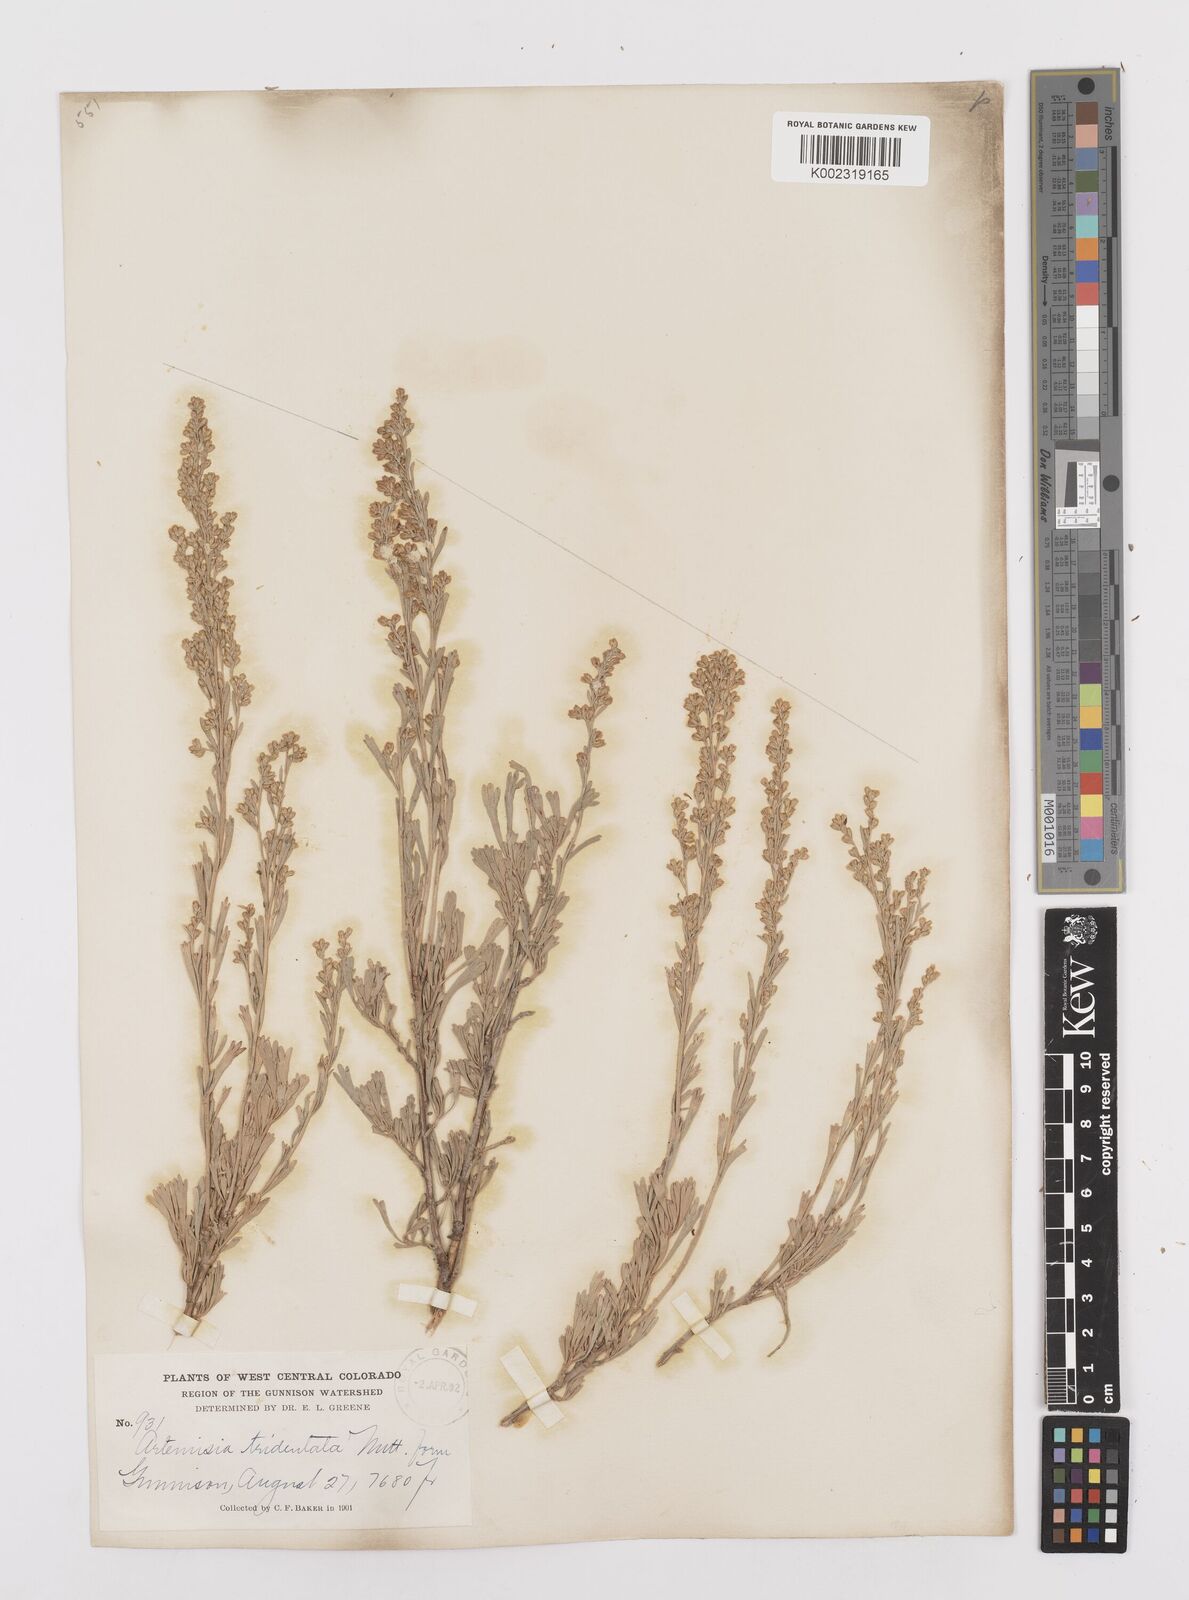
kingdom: Plantae
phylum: Tracheophyta
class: Magnoliopsida
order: Asterales
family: Asteraceae
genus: Artemisia
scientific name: Artemisia tridentata
